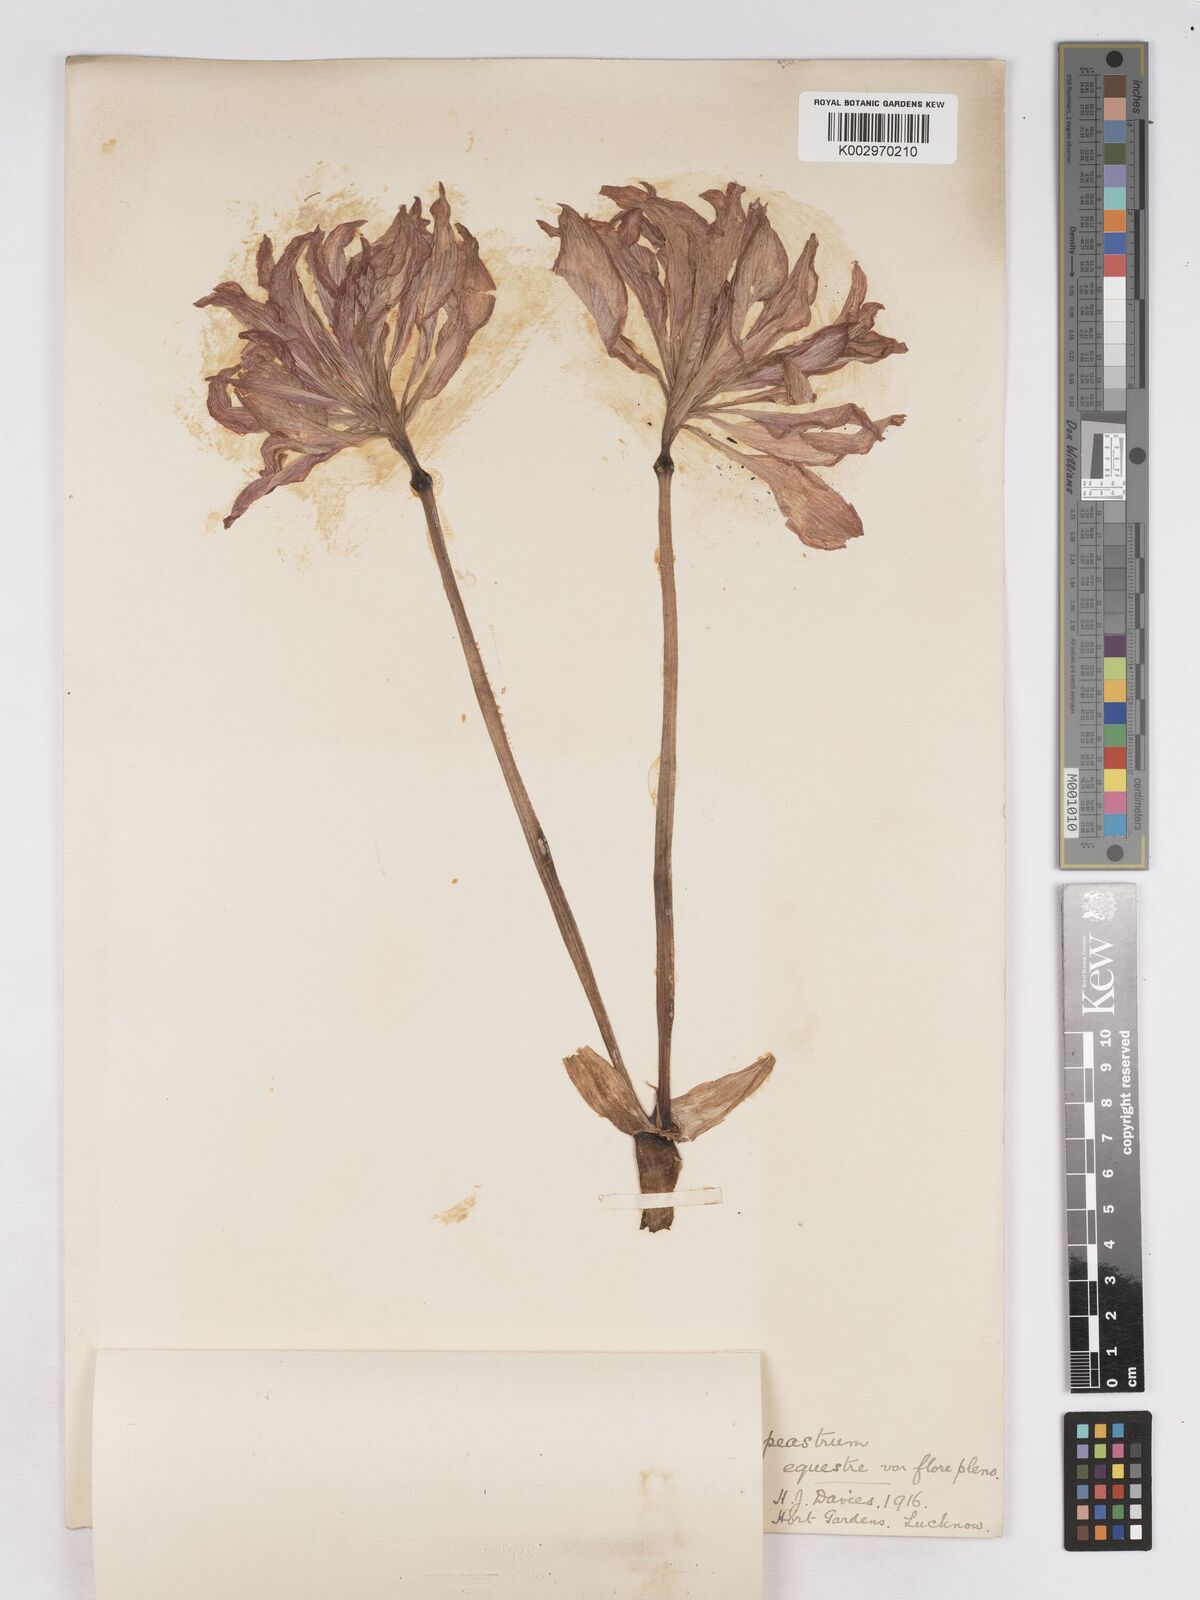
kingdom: Plantae
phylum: Tracheophyta
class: Liliopsida
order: Asparagales
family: Amaryllidaceae
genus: Hippeastrum
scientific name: Hippeastrum
